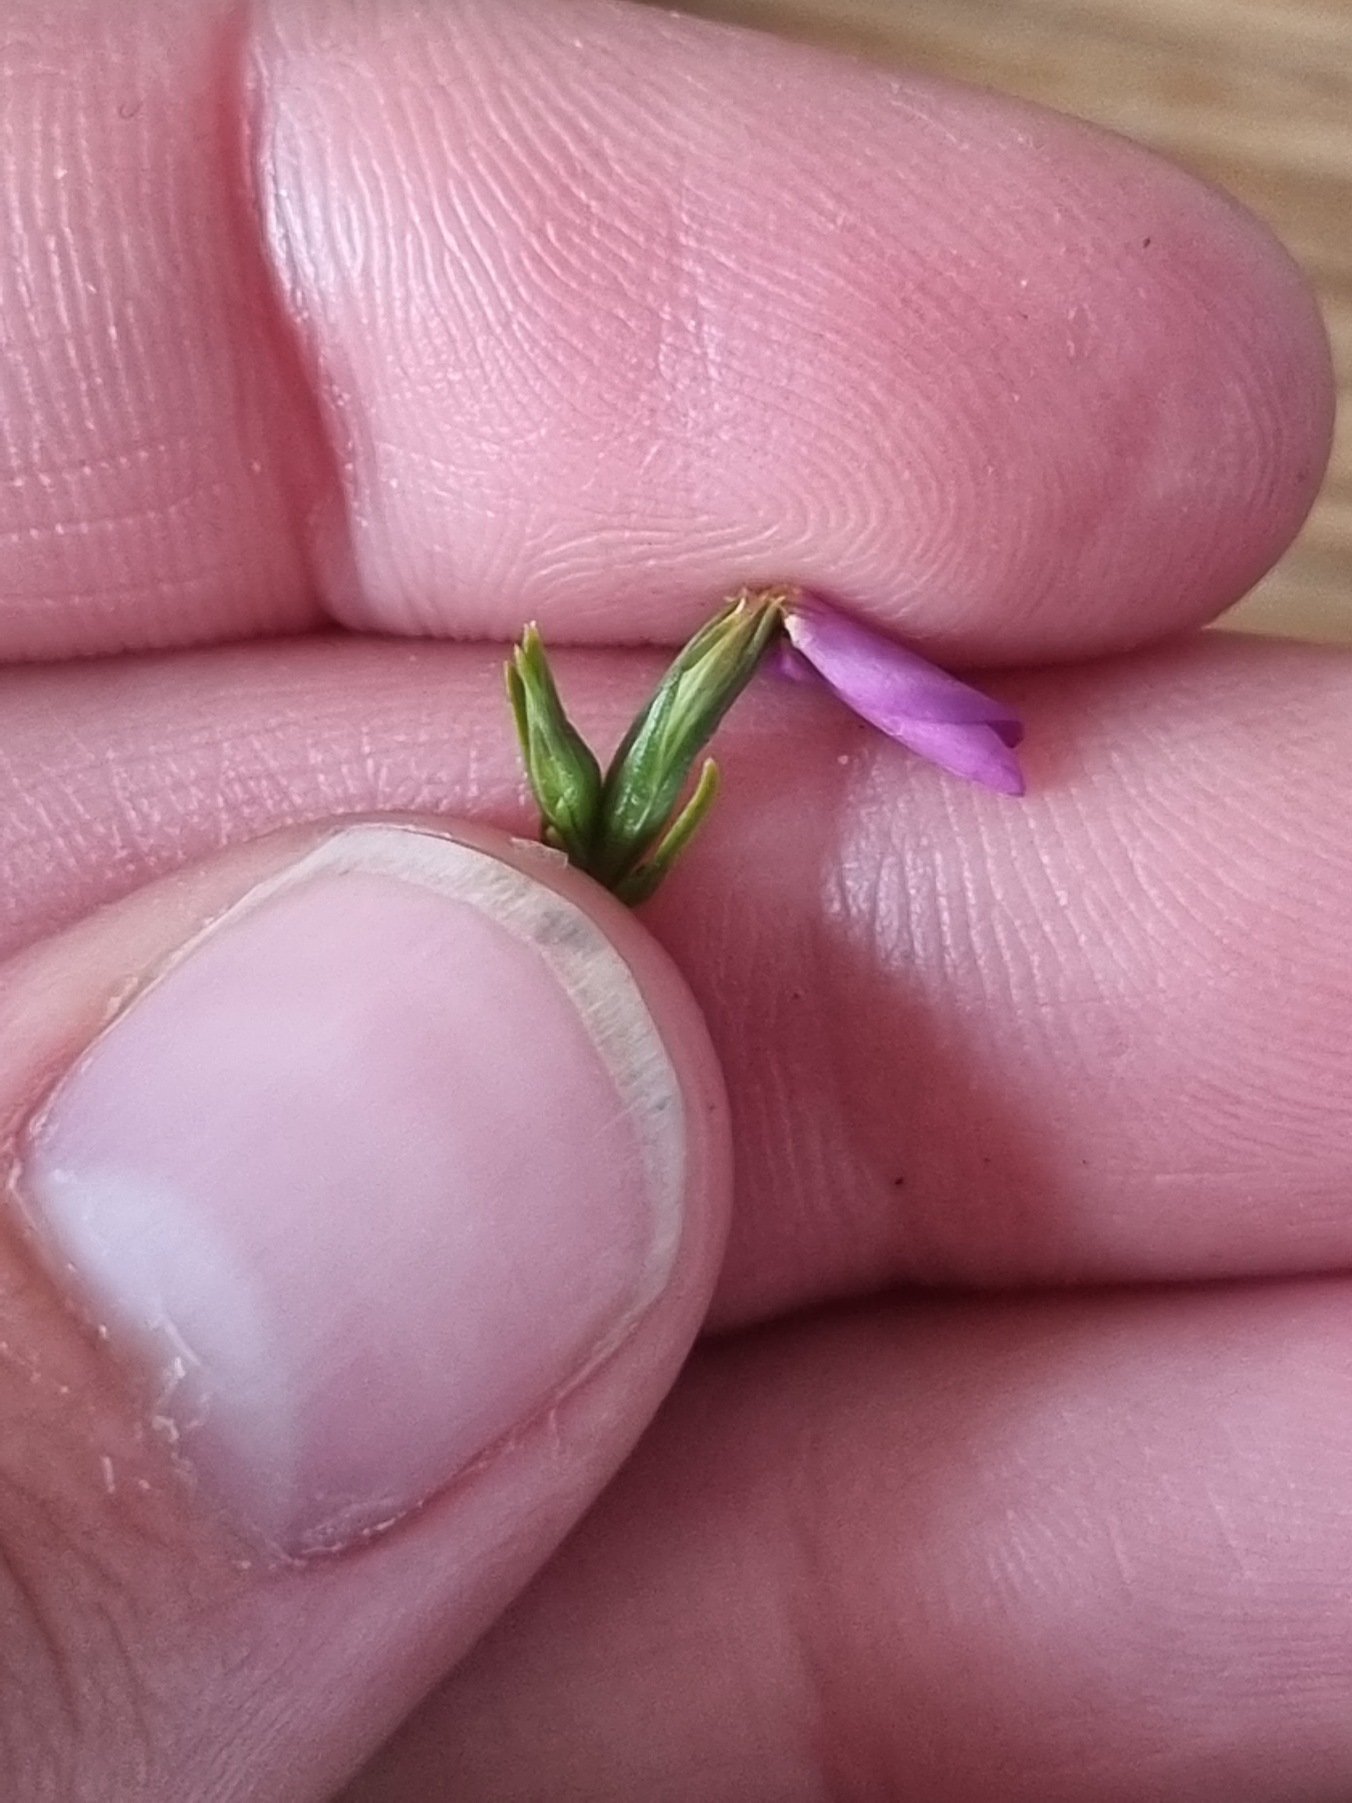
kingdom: Plantae
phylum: Tracheophyta
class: Magnoliopsida
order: Gentianales
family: Gentianaceae
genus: Centaurium
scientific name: Centaurium littorale
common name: Strand-tusindgylden
